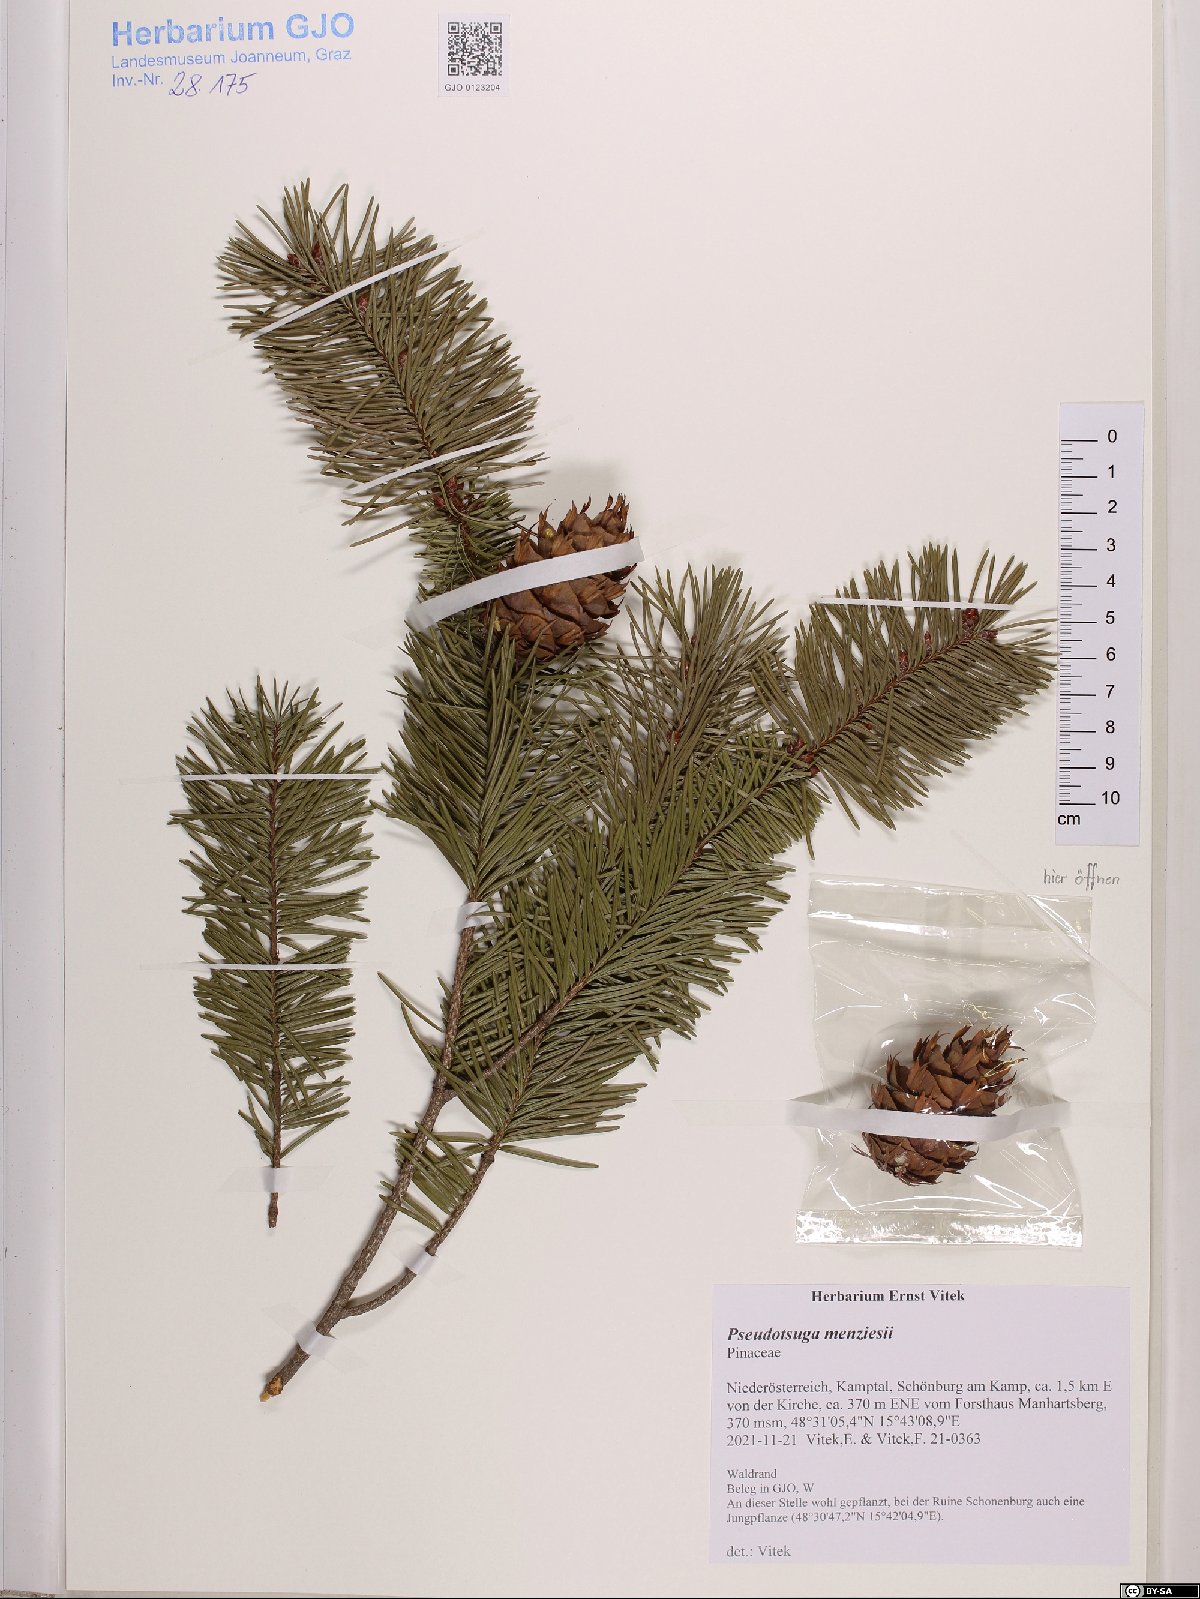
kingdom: Plantae
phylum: Tracheophyta
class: Pinopsida
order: Pinales
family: Pinaceae
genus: Pseudotsuga
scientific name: Pseudotsuga menziesii
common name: Douglas fir
